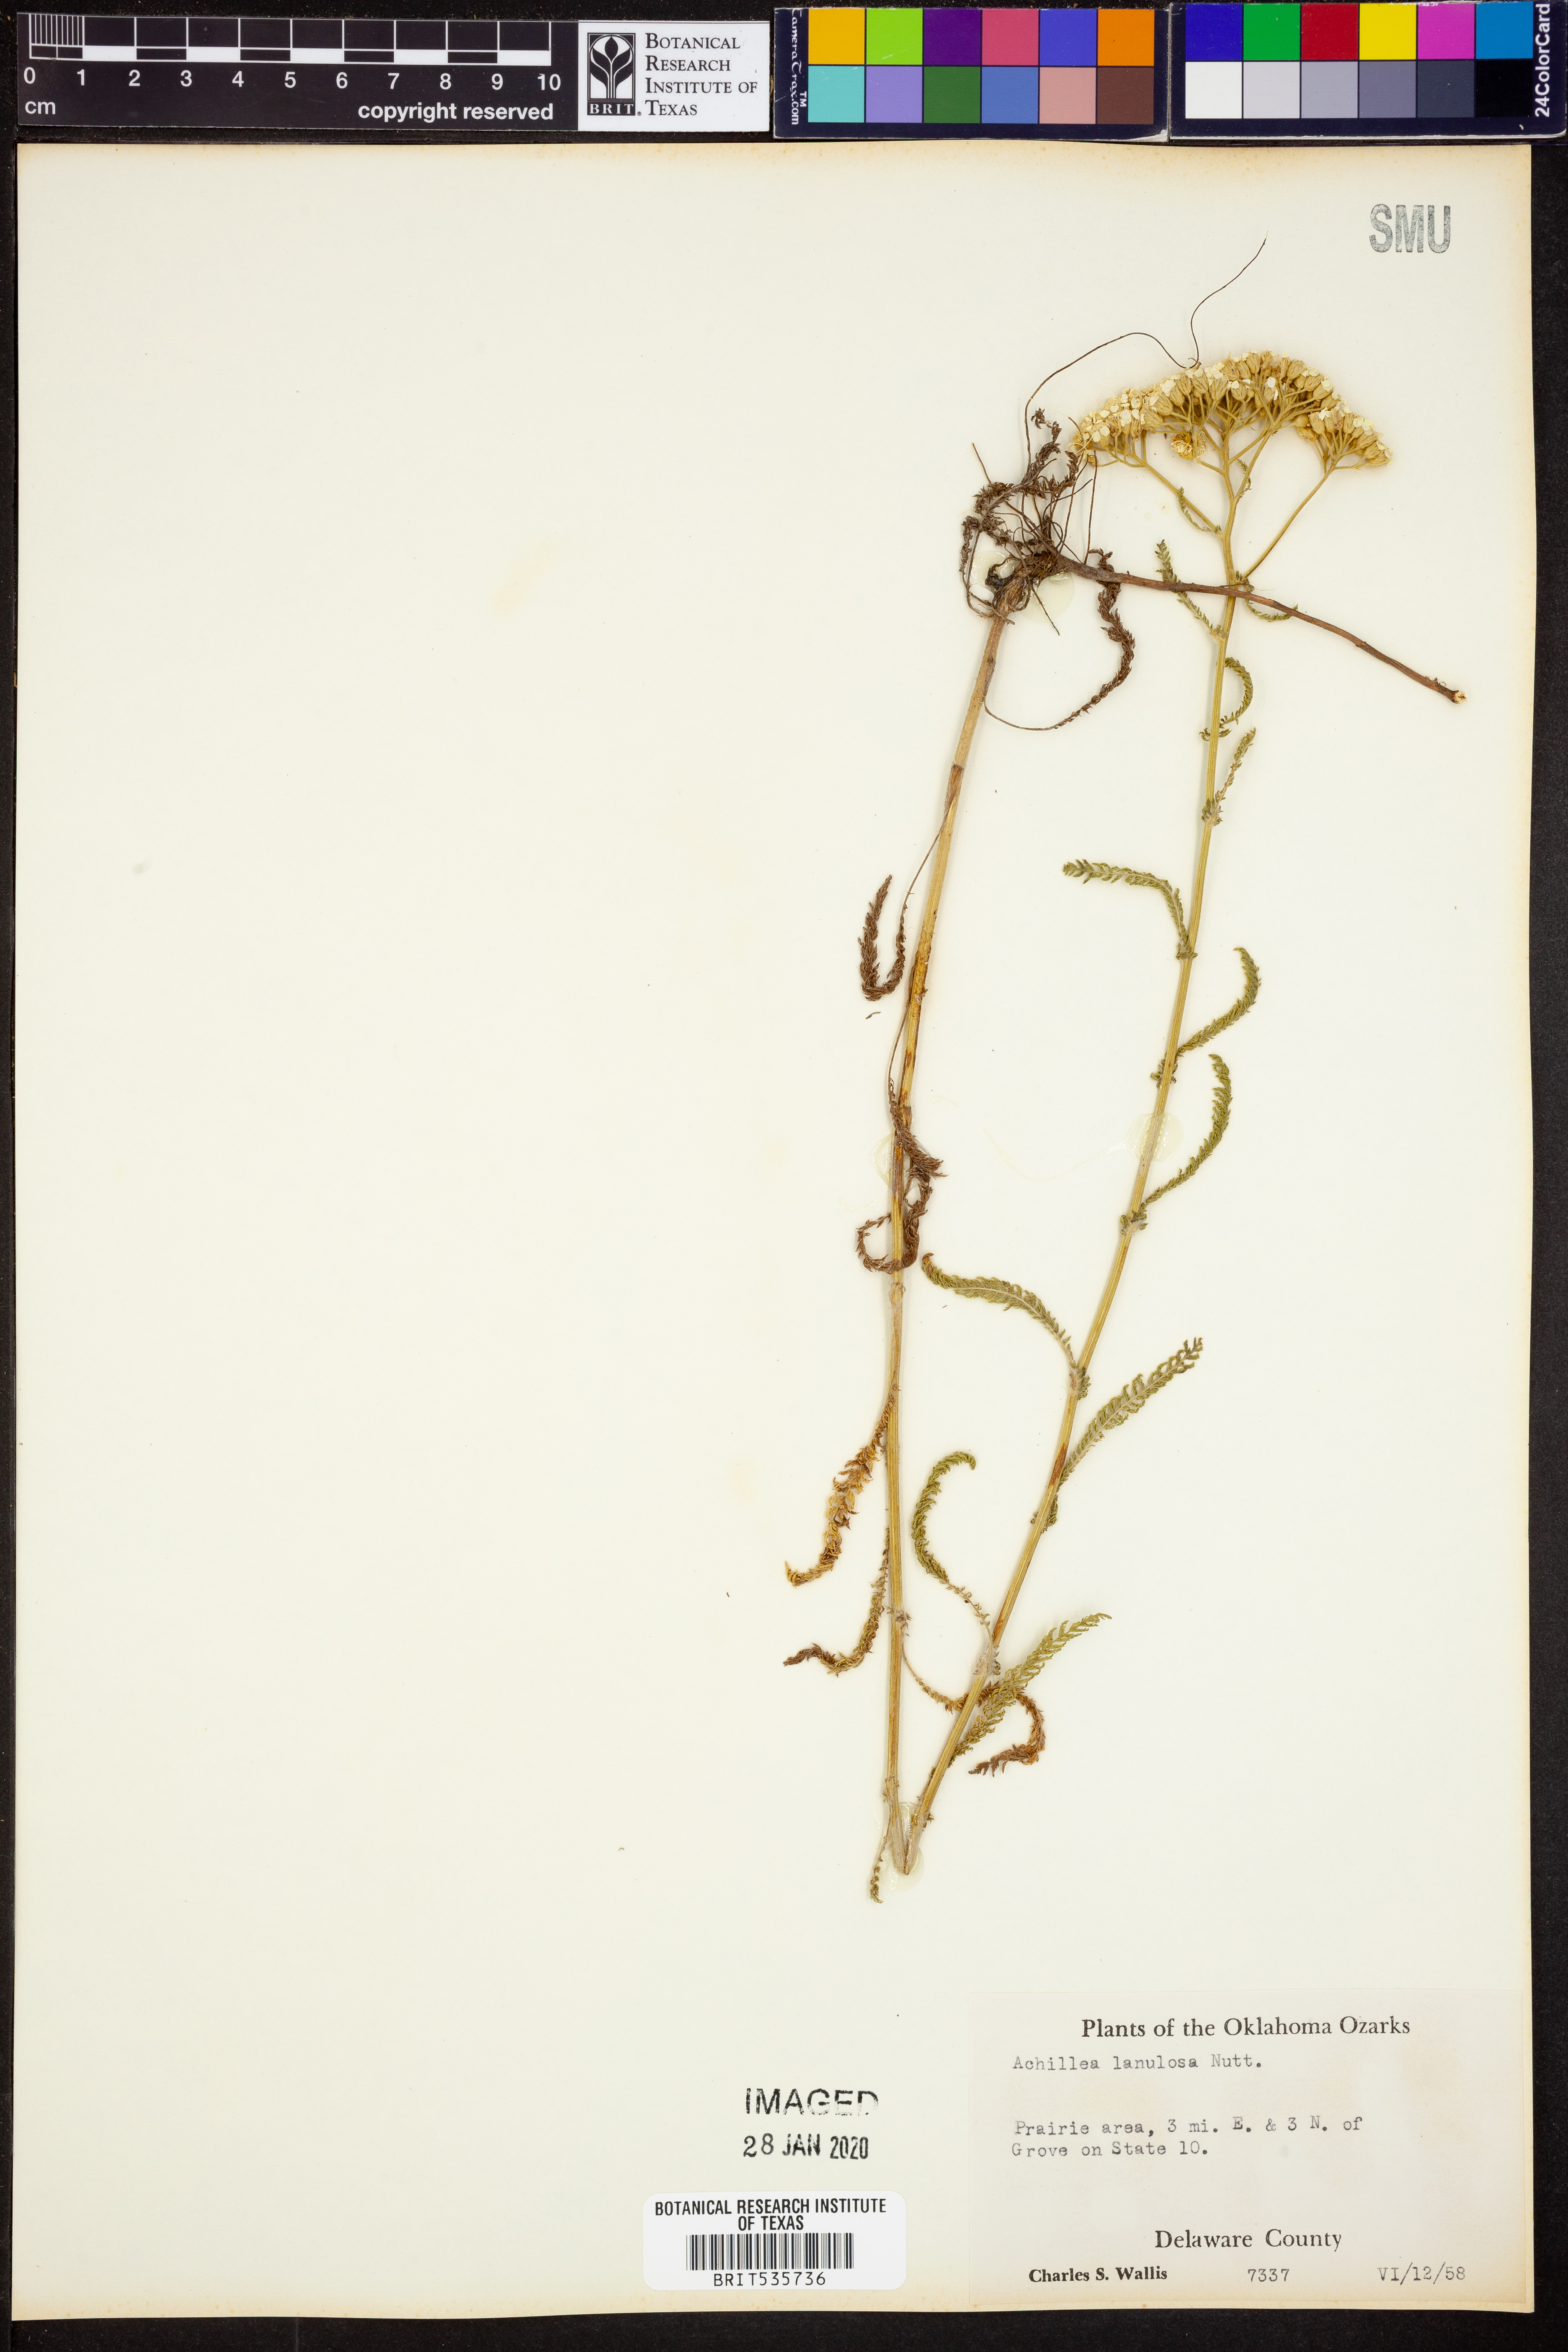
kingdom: Plantae
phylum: Tracheophyta
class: Magnoliopsida
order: Asterales
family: Asteraceae
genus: Achillea
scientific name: Achillea millefolium
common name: Yarrow
